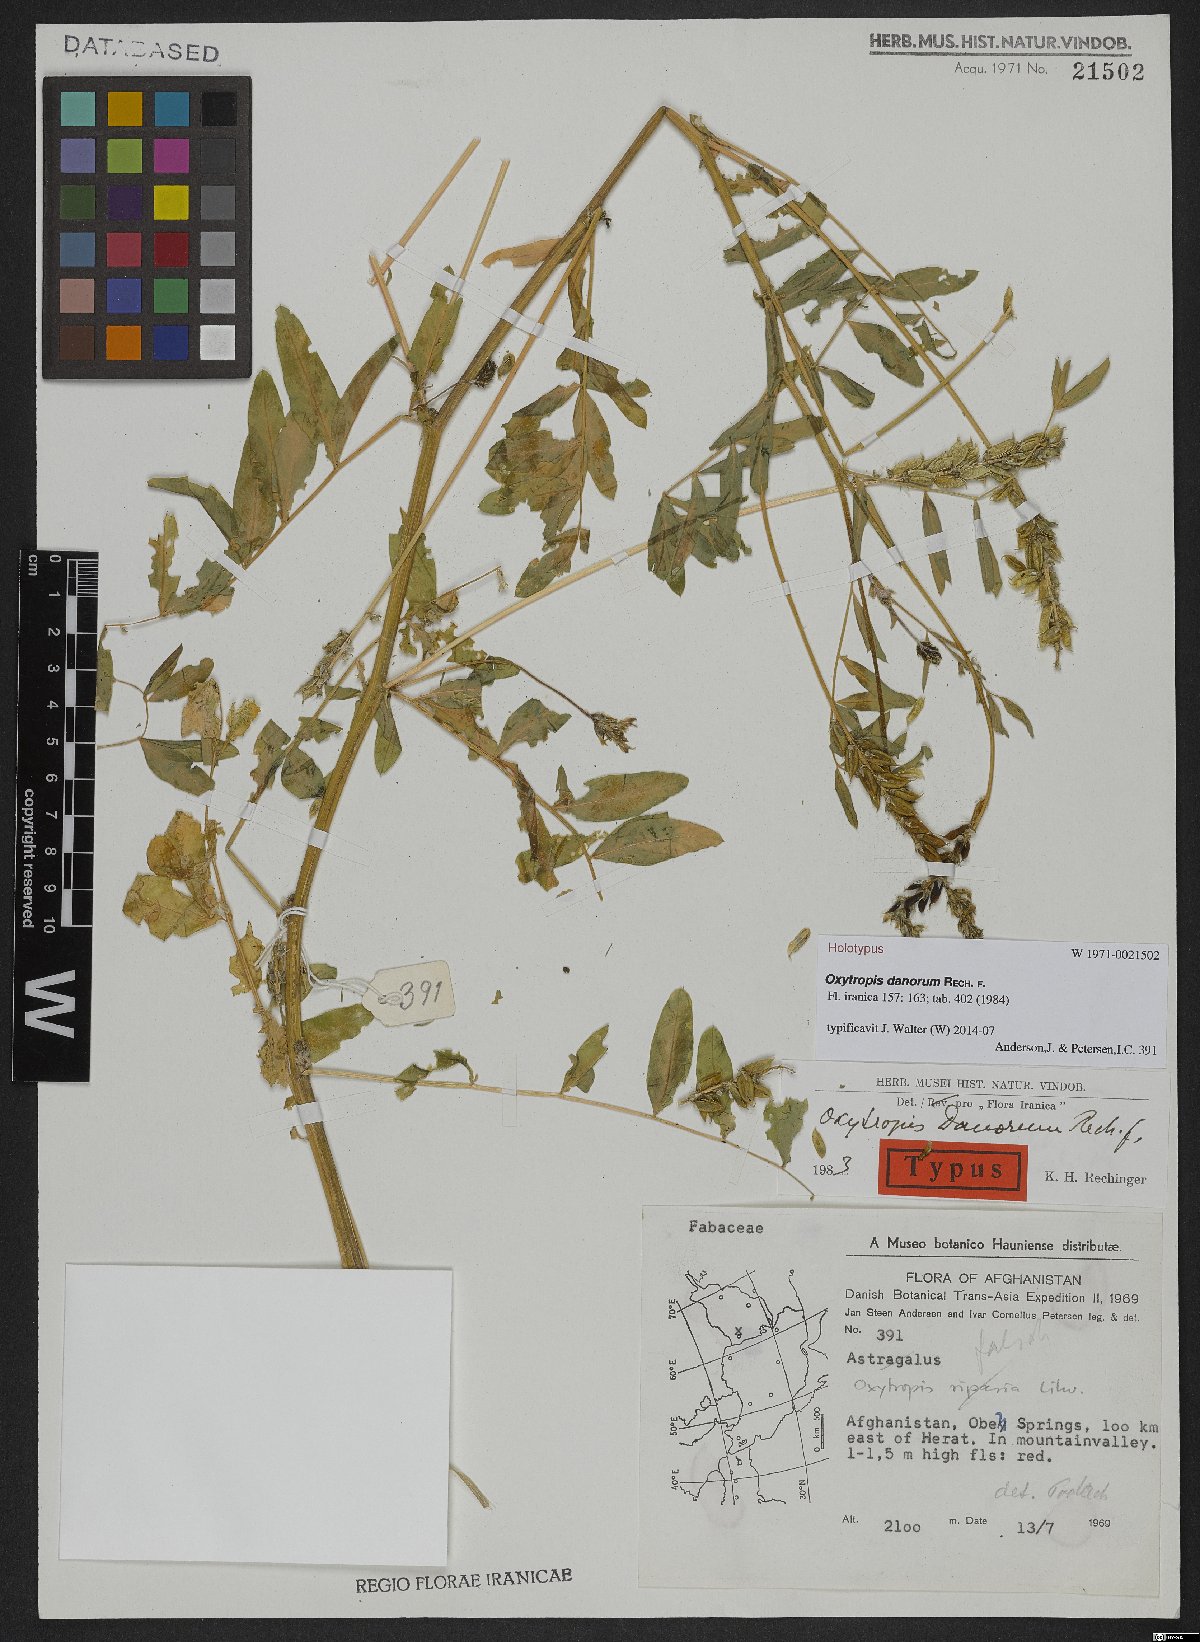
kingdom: Plantae
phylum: Tracheophyta
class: Magnoliopsida
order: Fabales
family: Fabaceae
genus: Oxytropis
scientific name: Oxytropis danorum
